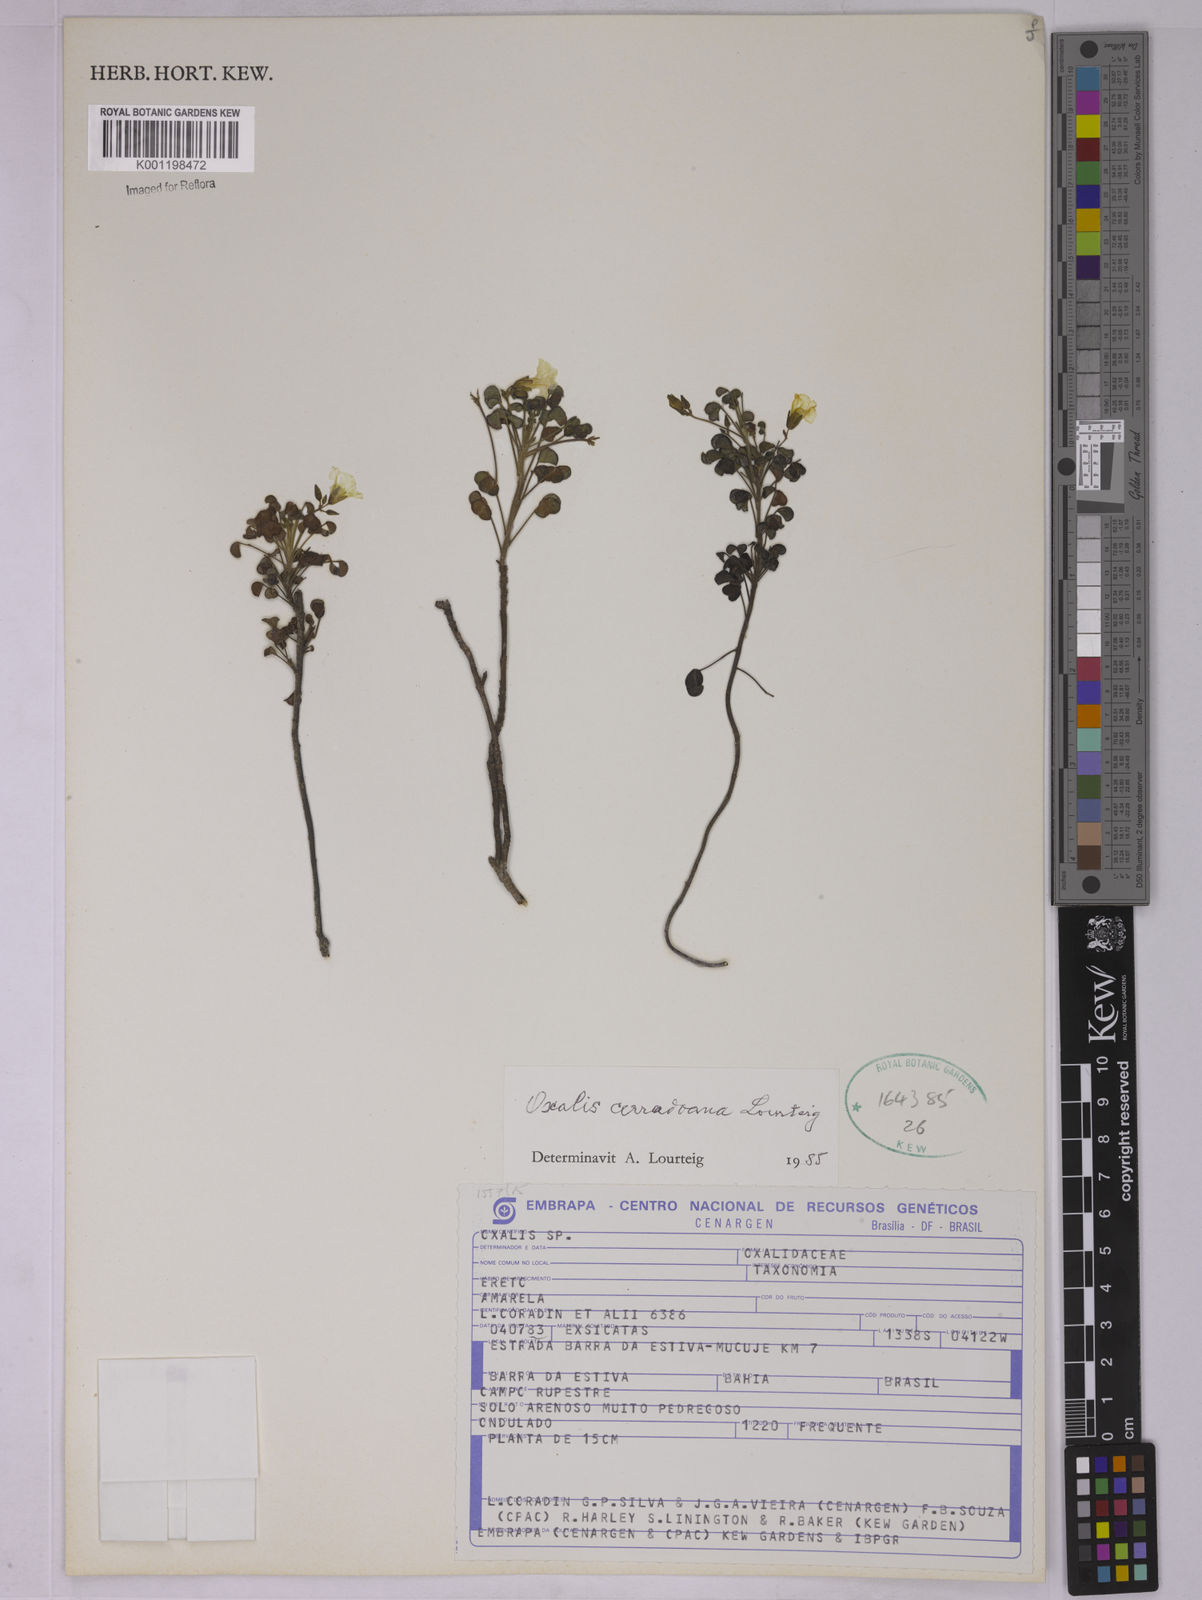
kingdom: Plantae
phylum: Tracheophyta
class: Magnoliopsida
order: Oxalidales
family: Oxalidaceae
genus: Oxalis
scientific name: Oxalis cerradoana
